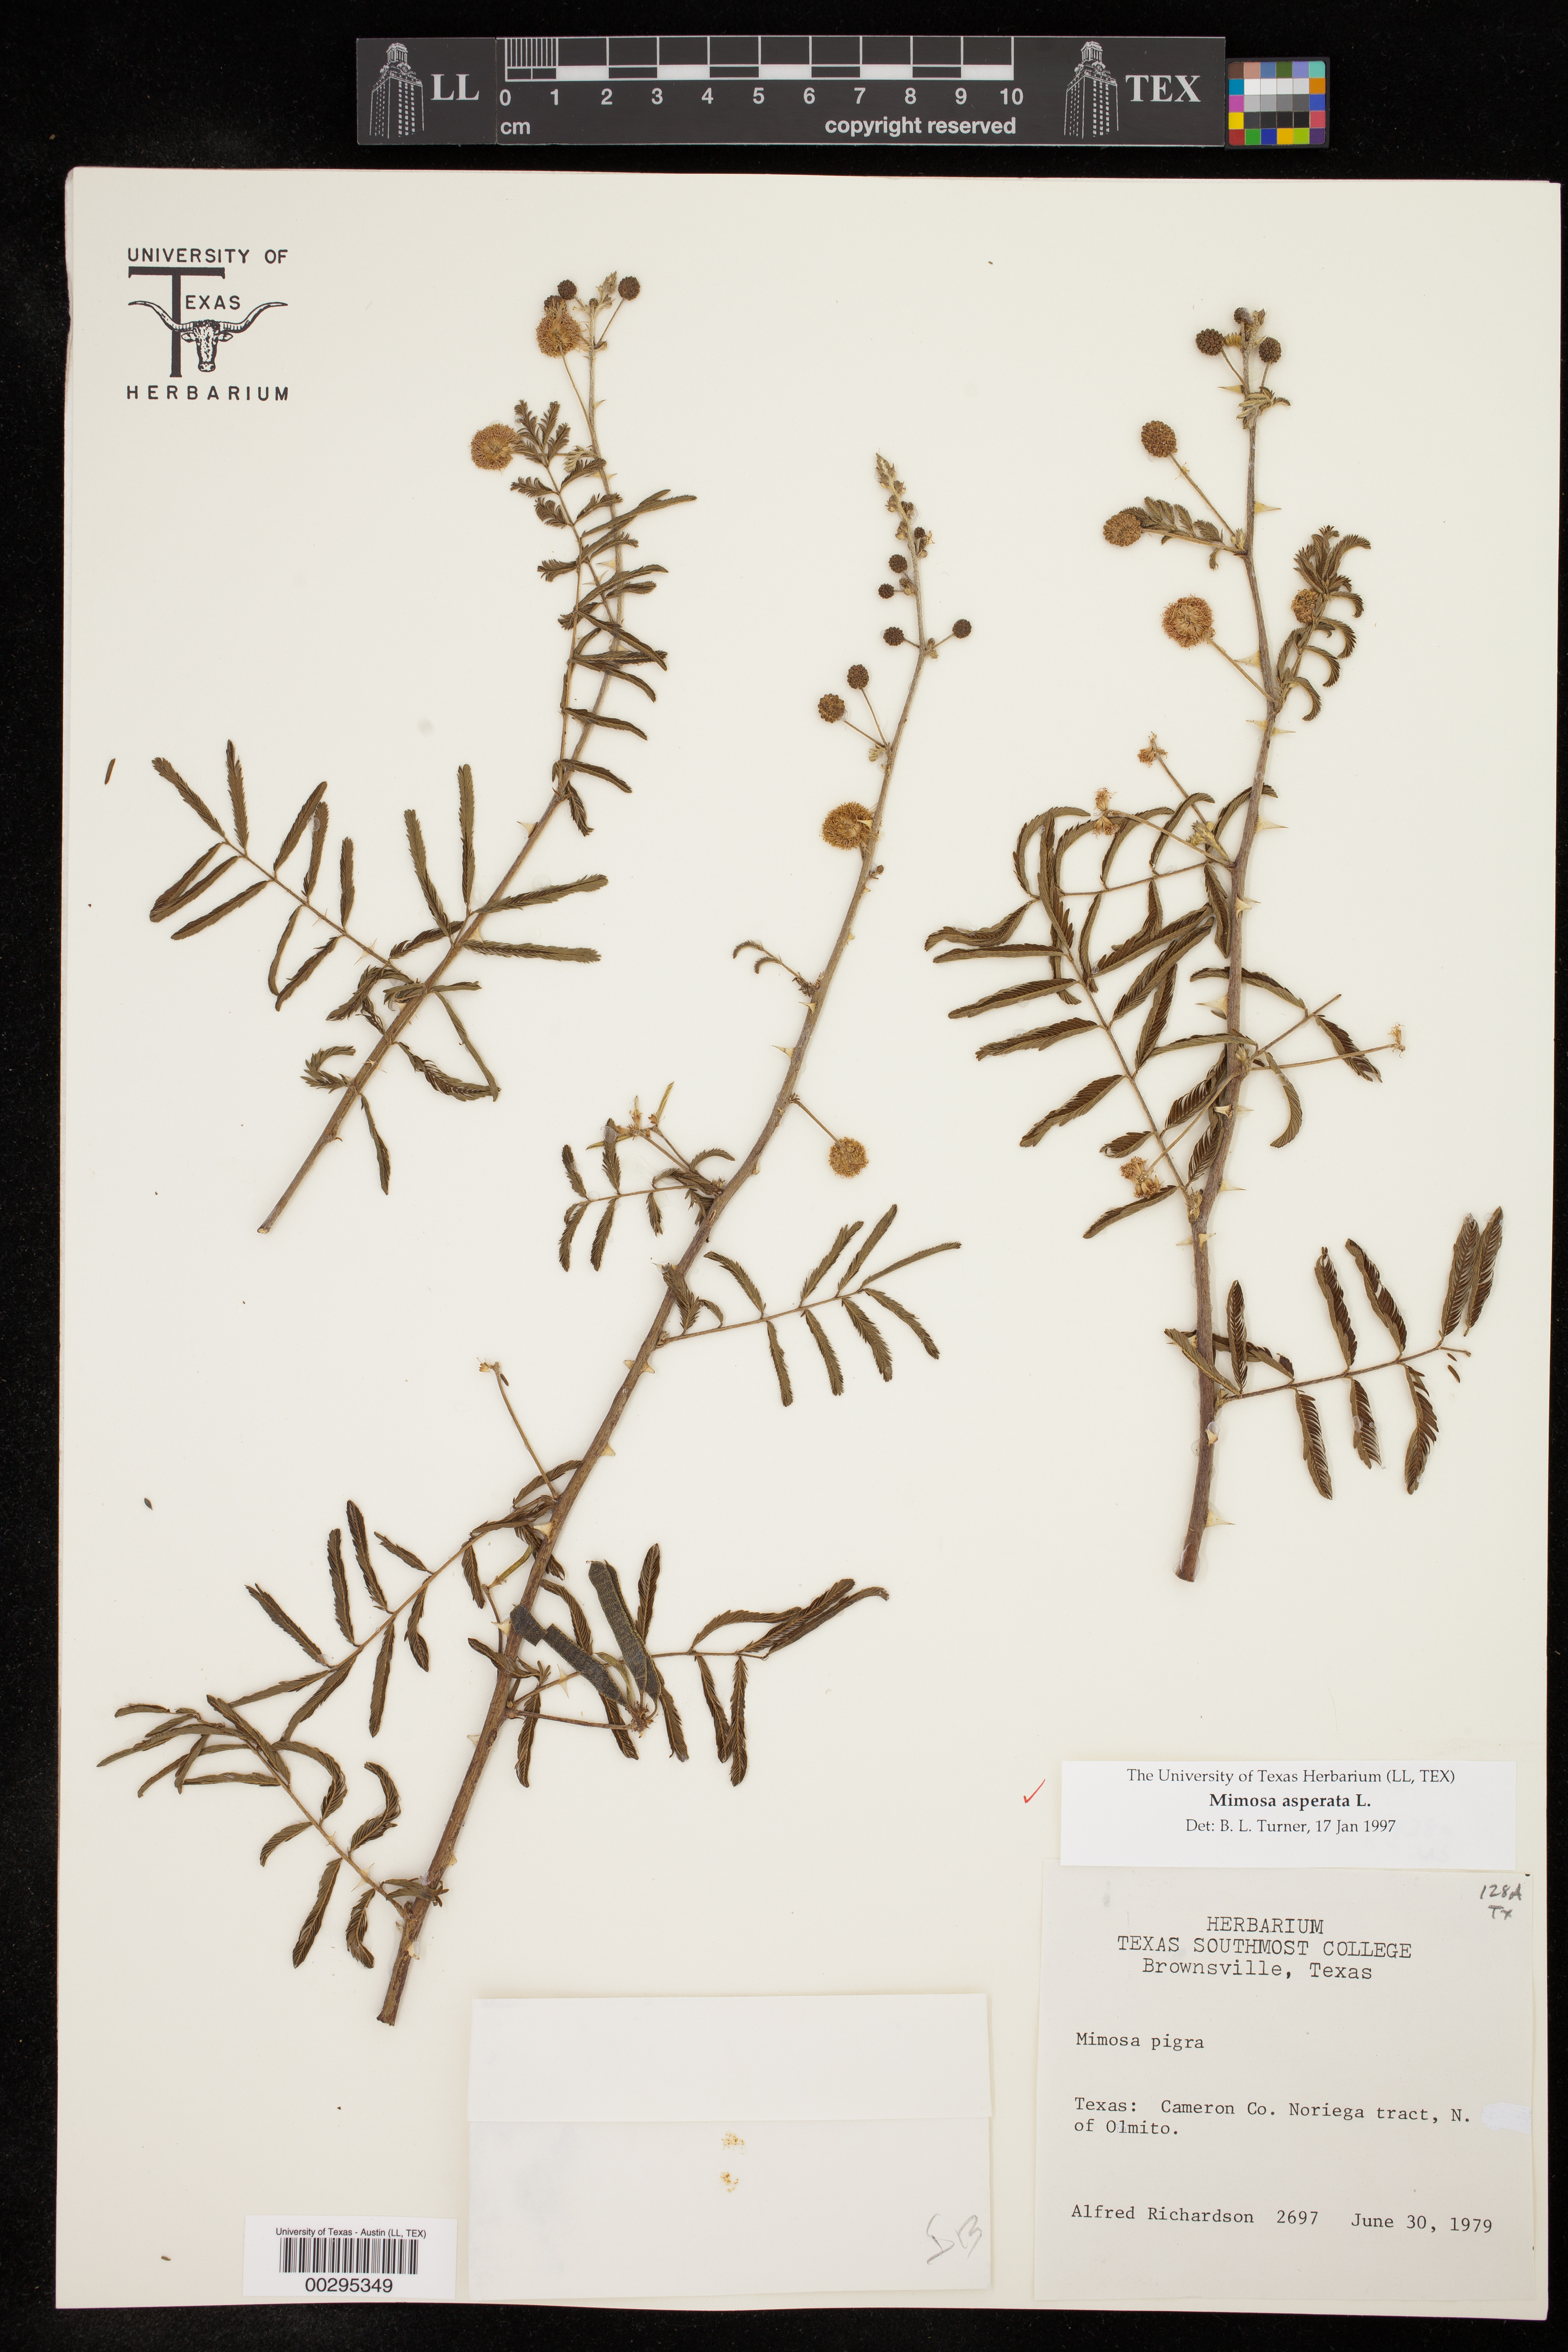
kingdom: Plantae
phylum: Tracheophyta
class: Magnoliopsida
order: Fabales
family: Fabaceae
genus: Mimosa
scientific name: Mimosa pigra
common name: Black mimosa
